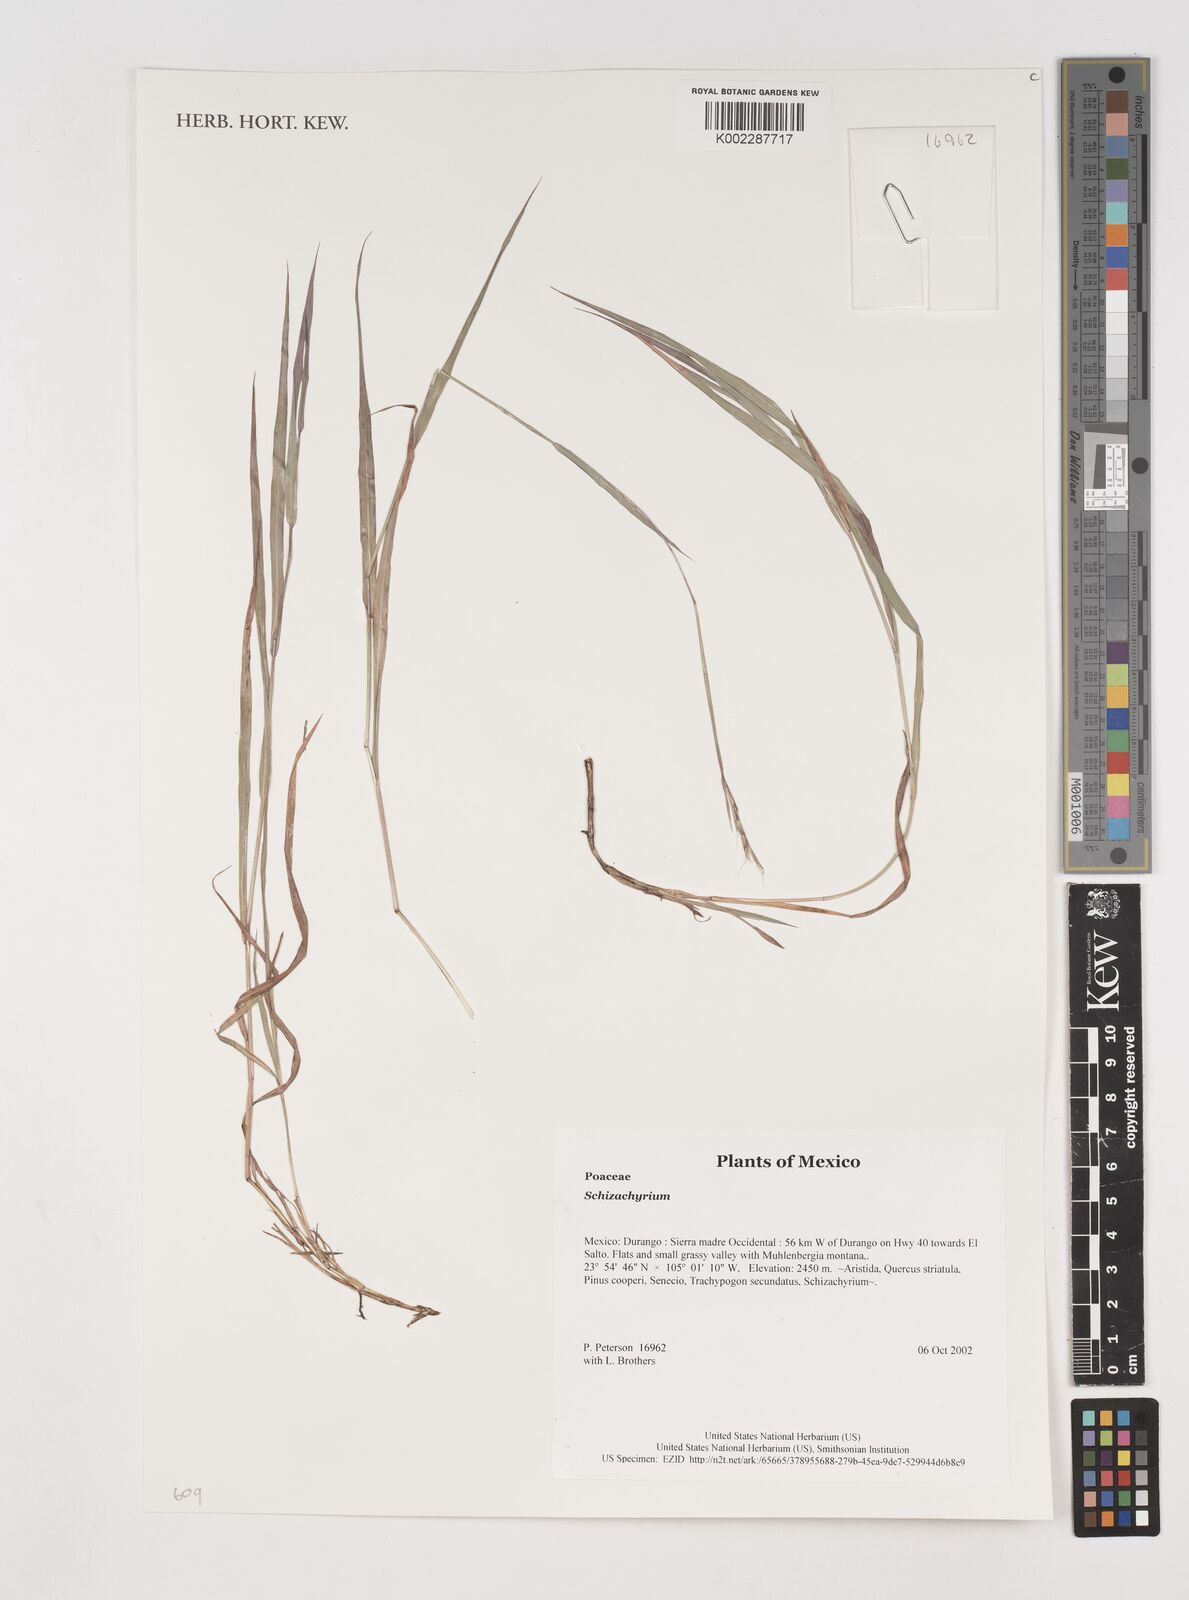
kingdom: Plantae
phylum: Tracheophyta
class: Liliopsida
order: Poales
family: Poaceae
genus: Schizachyrium
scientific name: Schizachyrium
